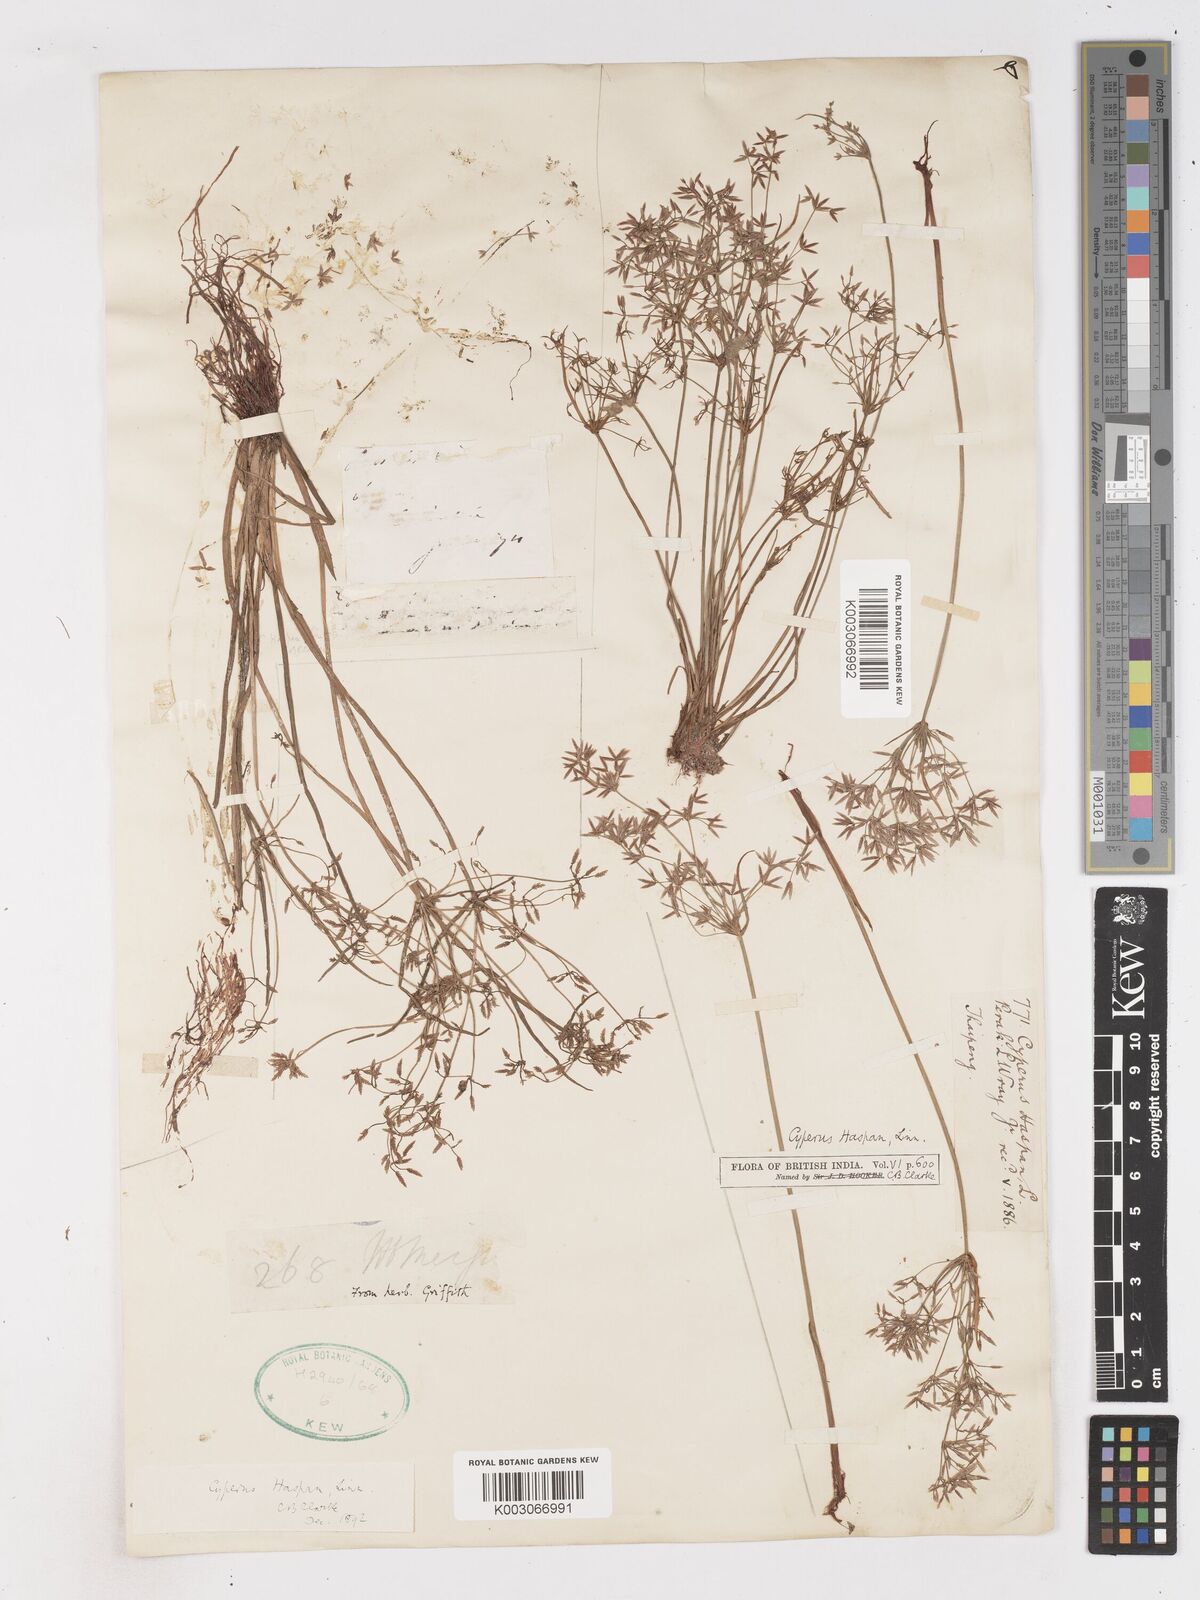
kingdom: Plantae
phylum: Tracheophyta
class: Liliopsida
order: Poales
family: Cyperaceae
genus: Cyperus
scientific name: Cyperus haspan
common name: Haspan flatsedge
